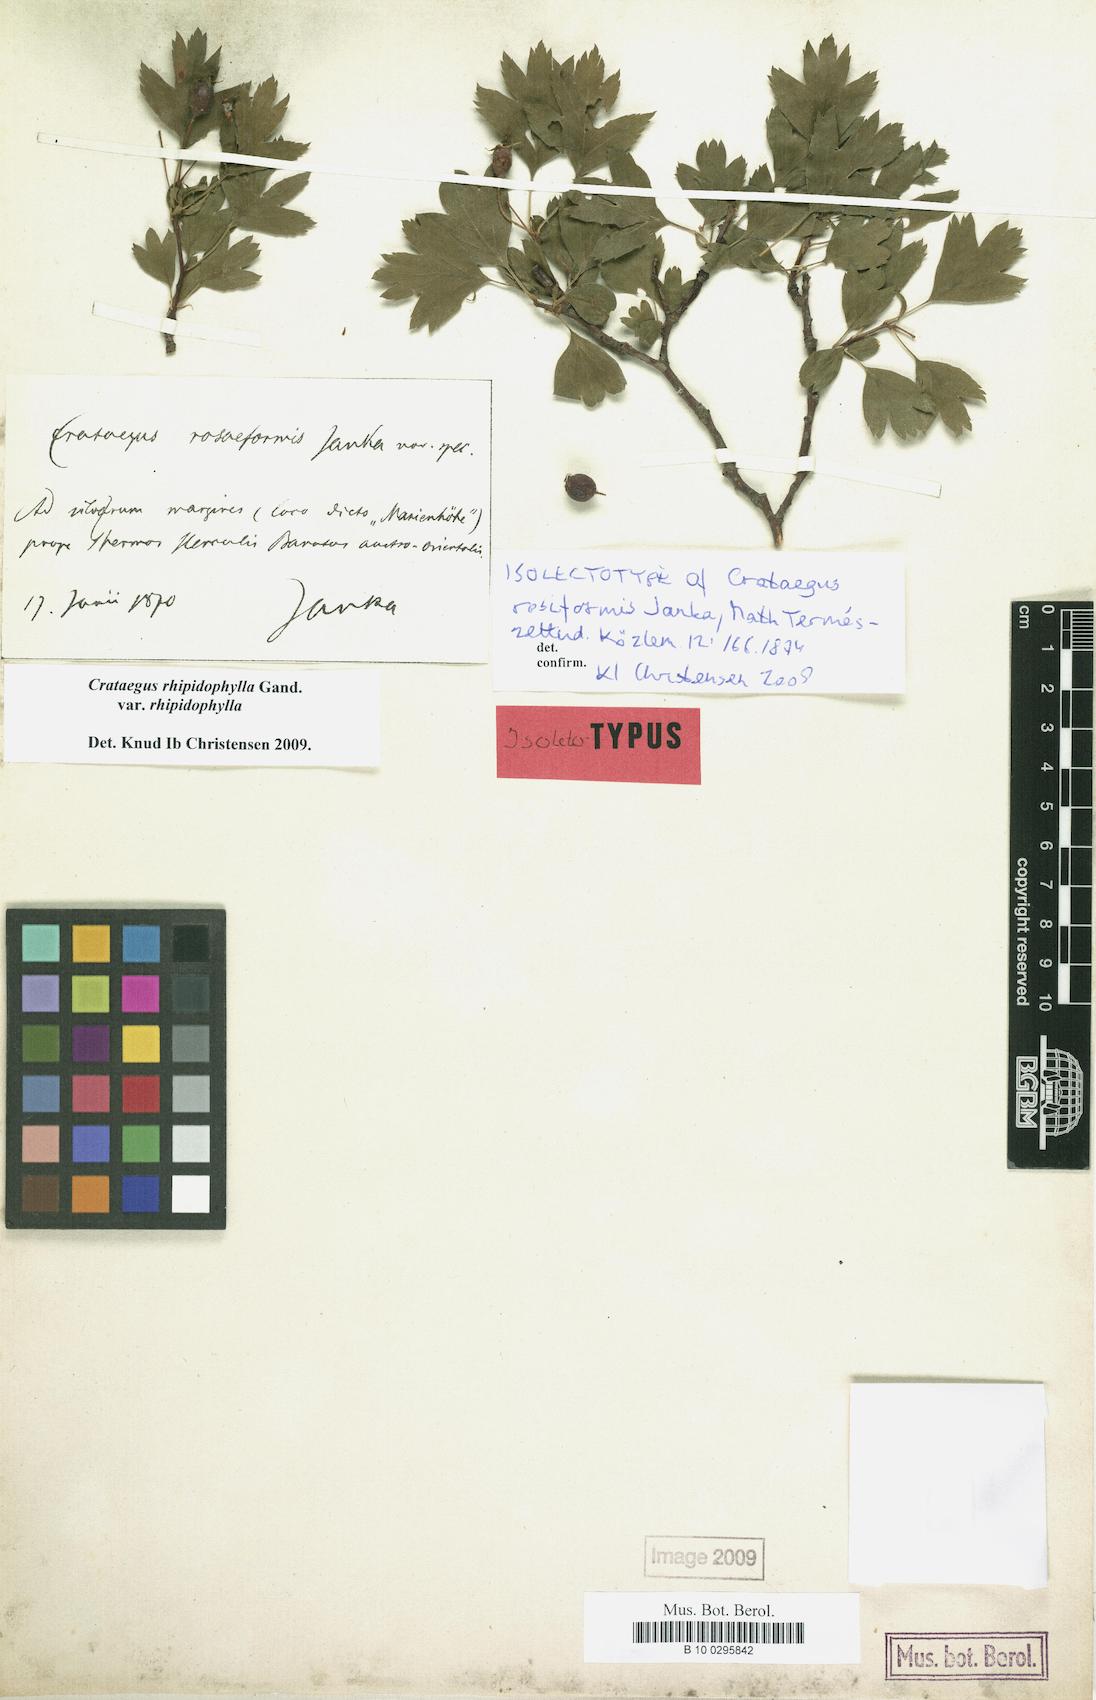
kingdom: Plantae
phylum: Tracheophyta
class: Magnoliopsida
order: Rosales
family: Rosaceae
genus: Crataegus
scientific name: Crataegus rhipidophylla
